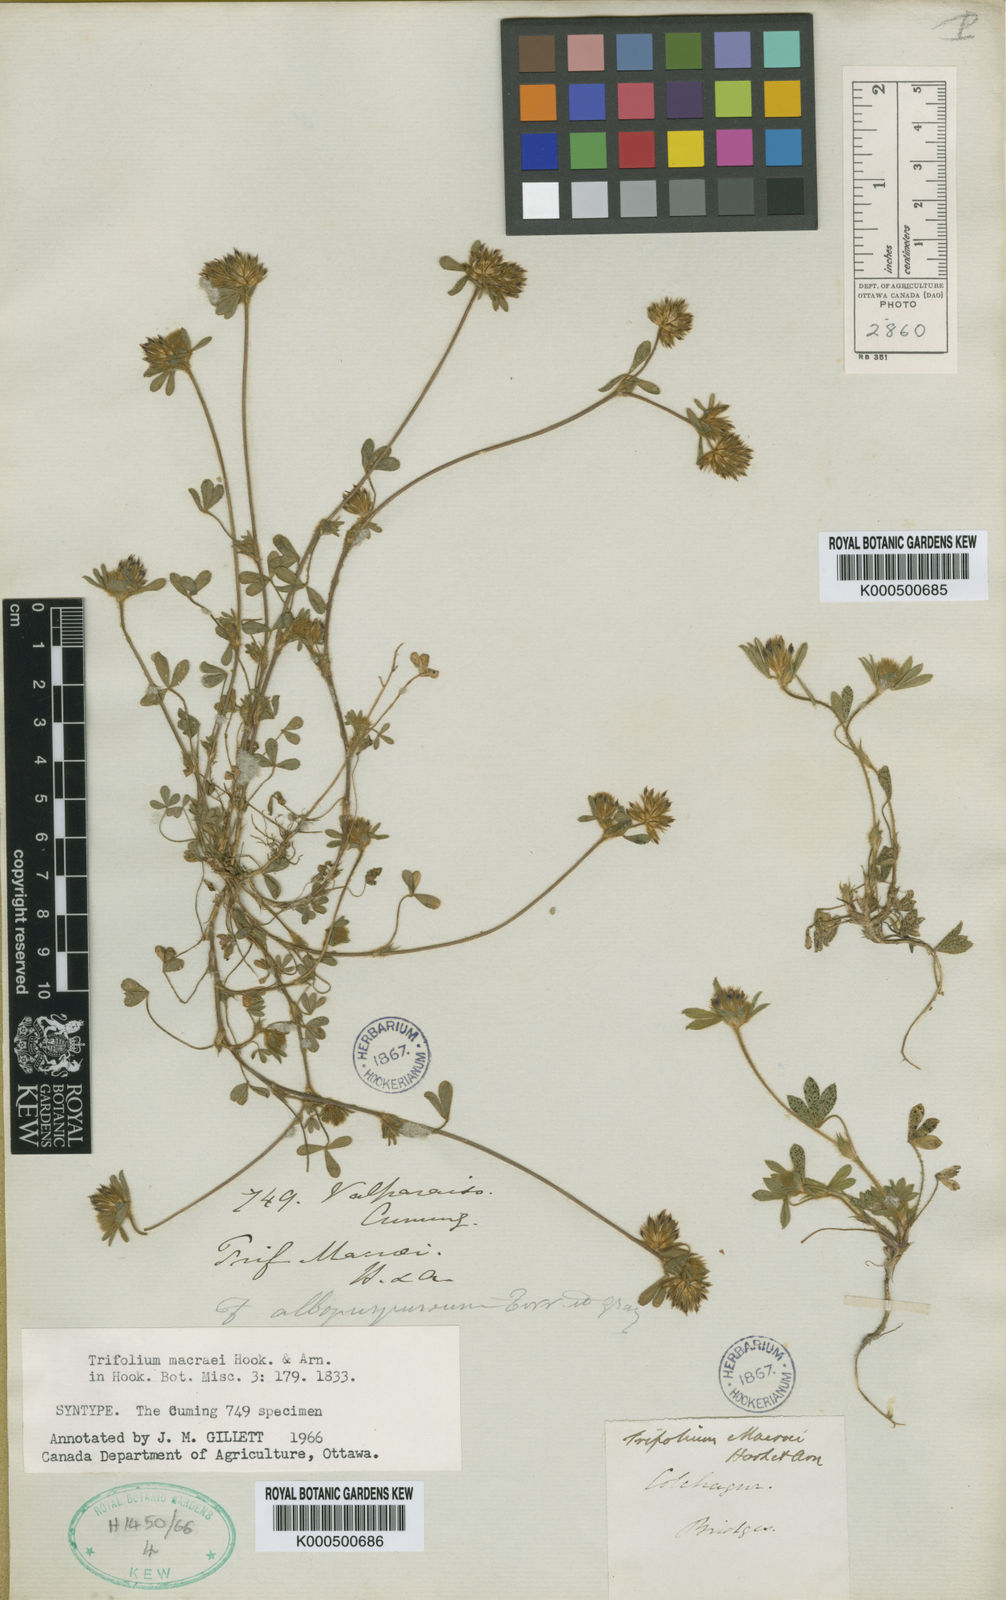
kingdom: Plantae
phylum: Tracheophyta
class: Magnoliopsida
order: Fabales
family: Fabaceae
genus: Trifolium
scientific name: Trifolium macraei
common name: Macrae's clover
